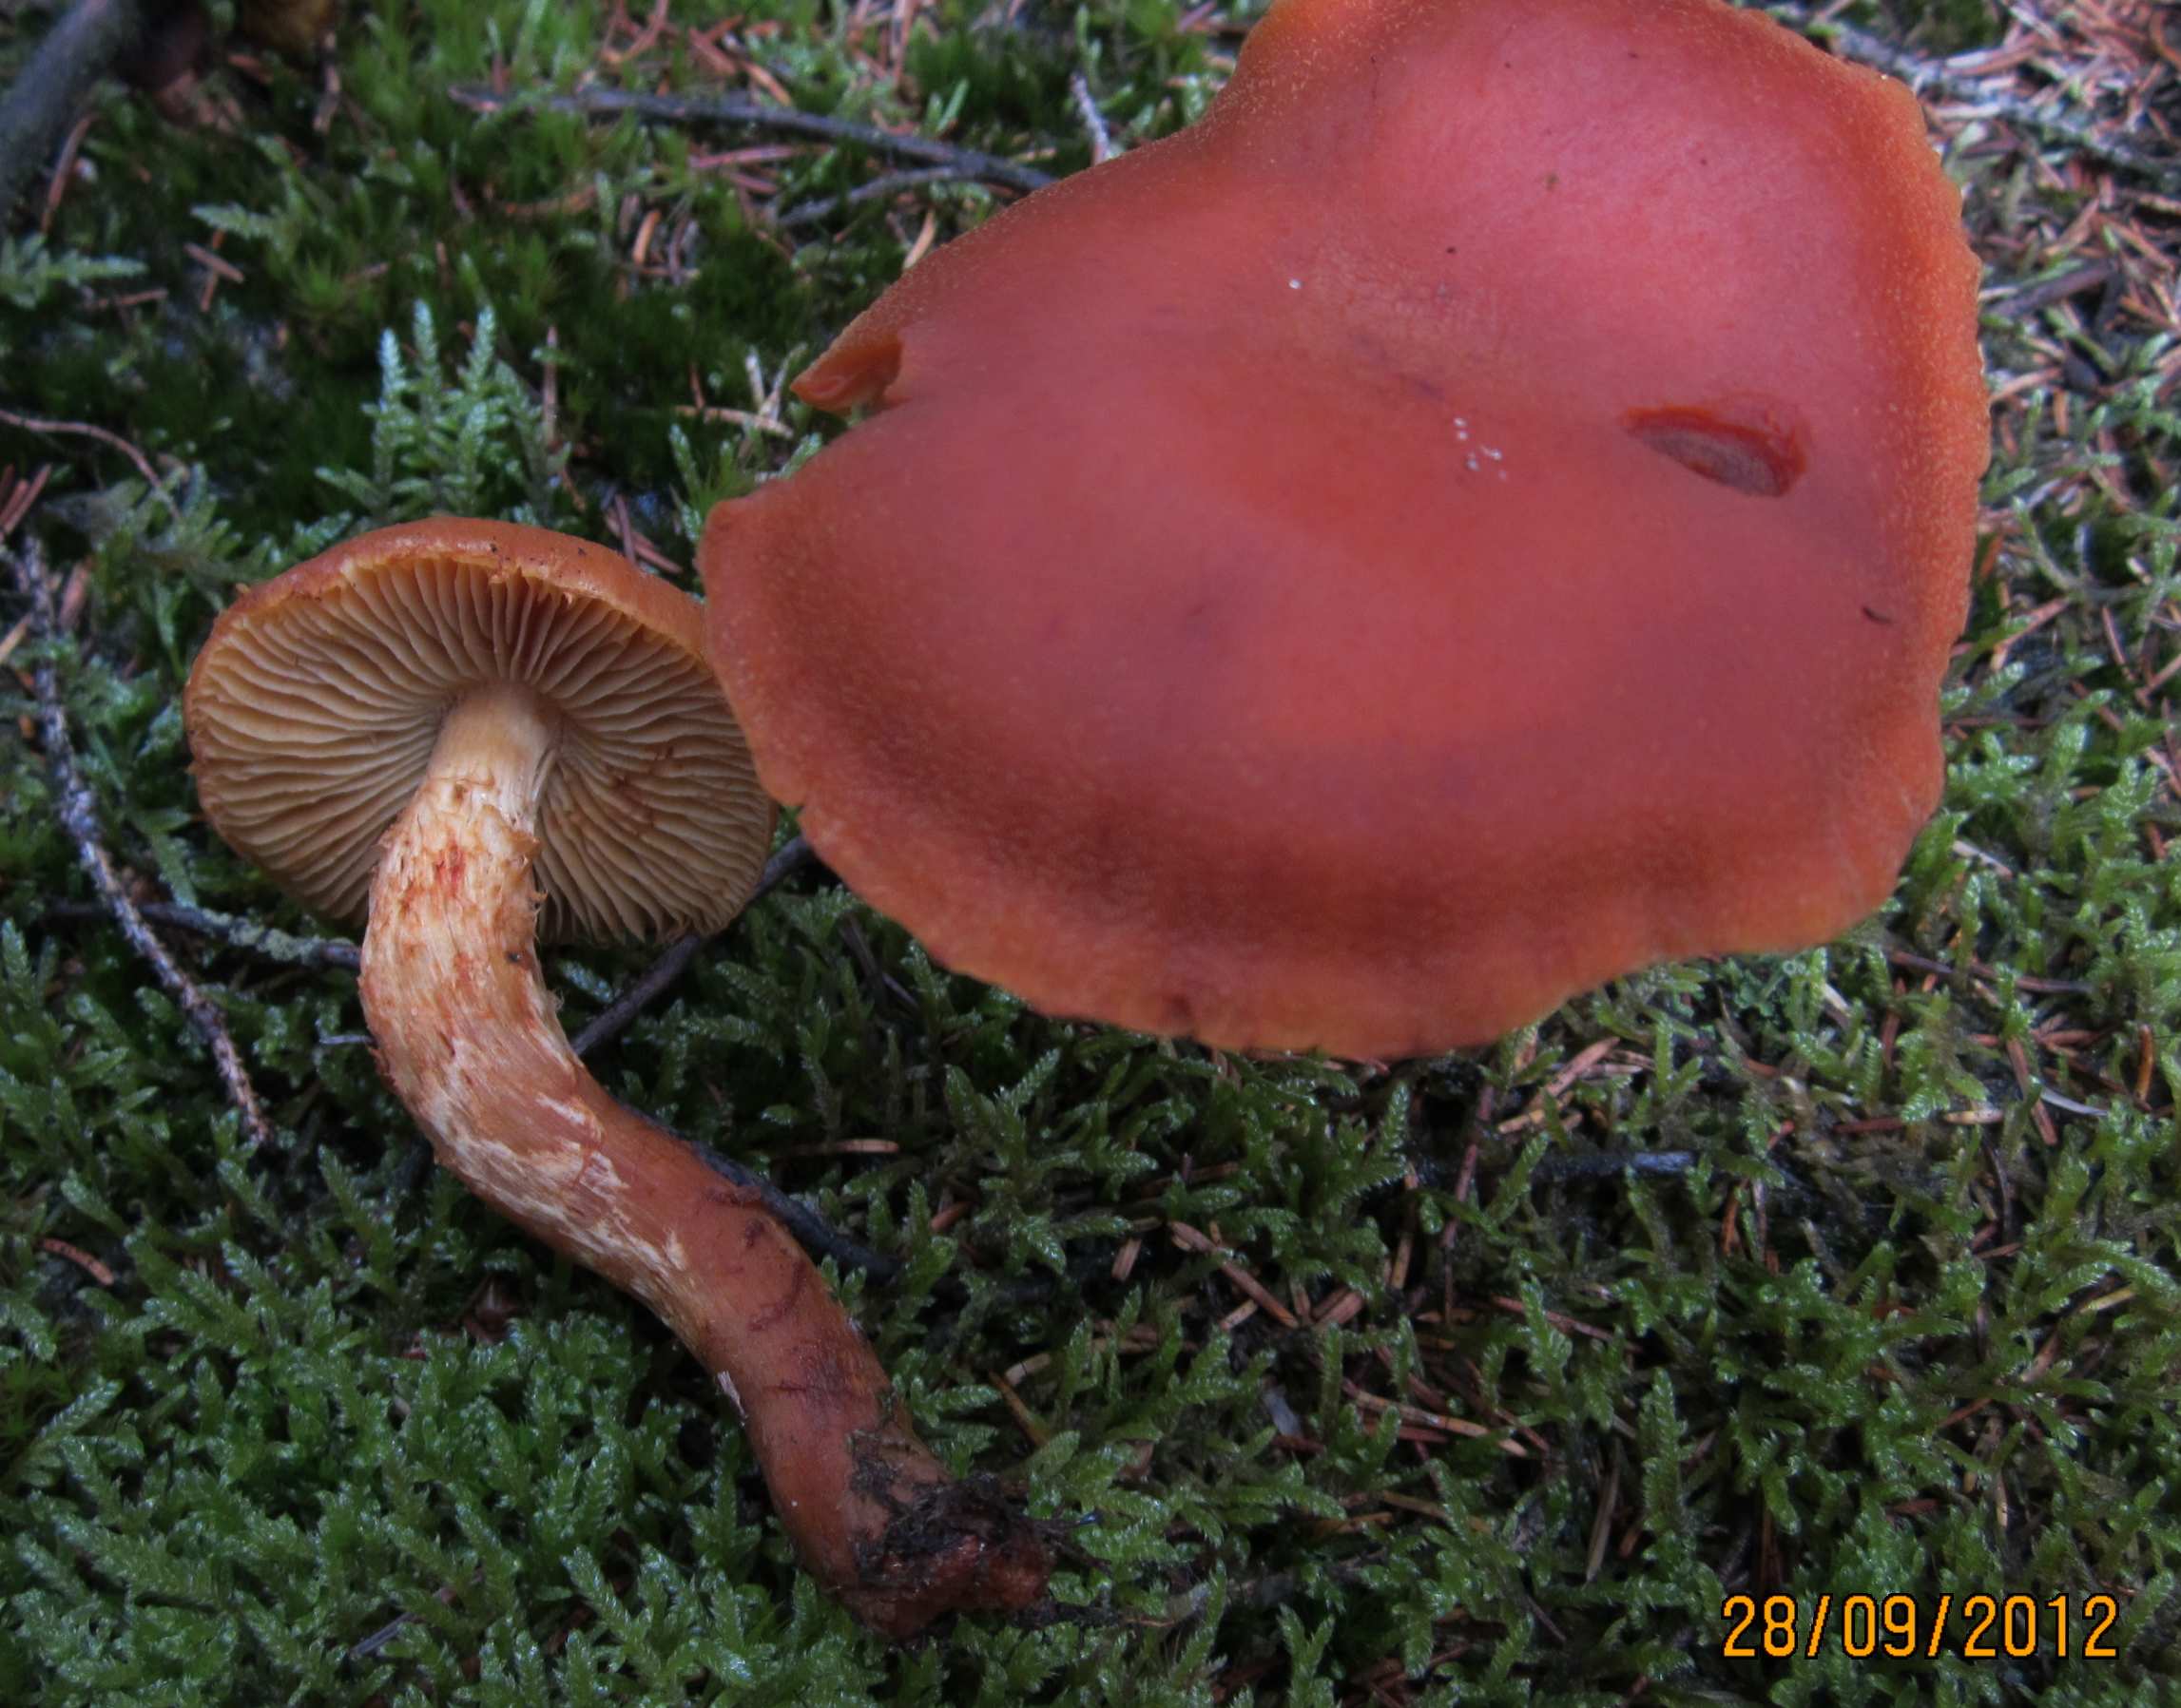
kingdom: Fungi
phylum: Basidiomycota
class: Agaricomycetes
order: Agaricales
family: Cortinariaceae
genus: Aureonarius
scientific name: Aureonarius limonius
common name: orangegul slørhat
